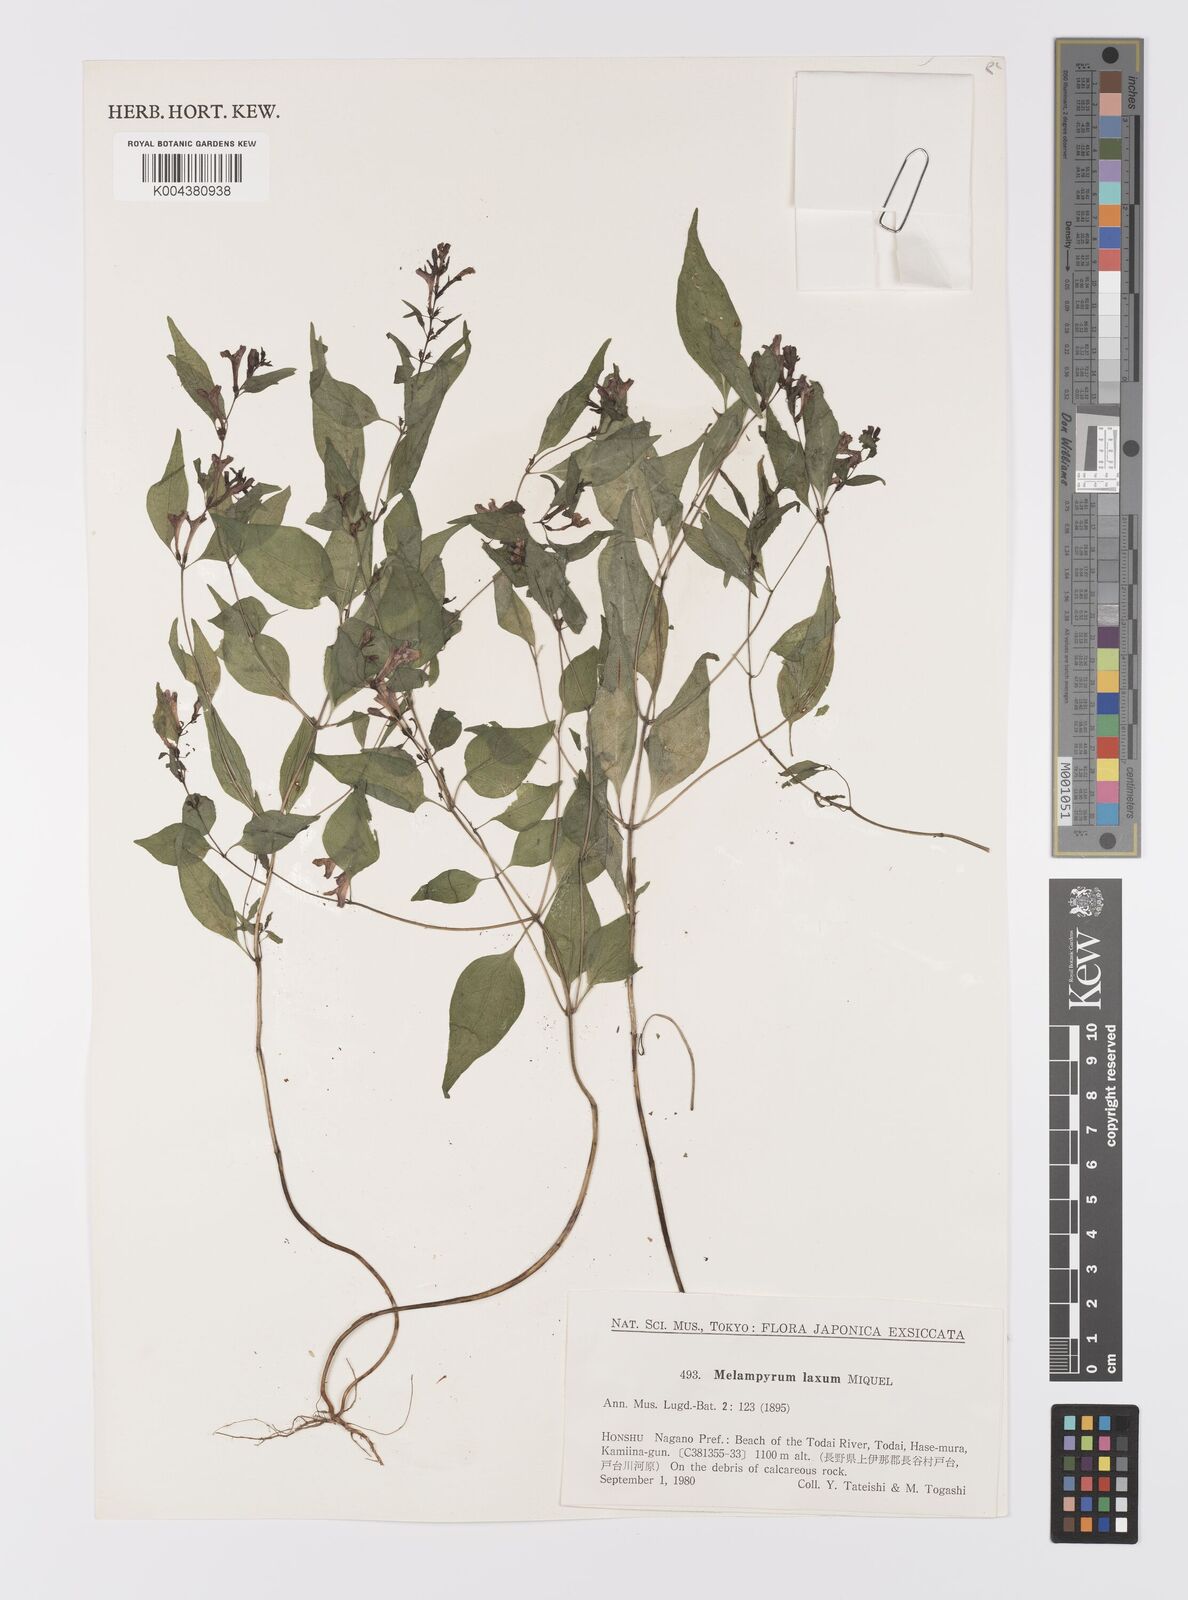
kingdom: Plantae
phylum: Tracheophyta
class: Magnoliopsida
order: Lamiales
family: Orobanchaceae
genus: Melampyrum
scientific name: Melampyrum laxum
